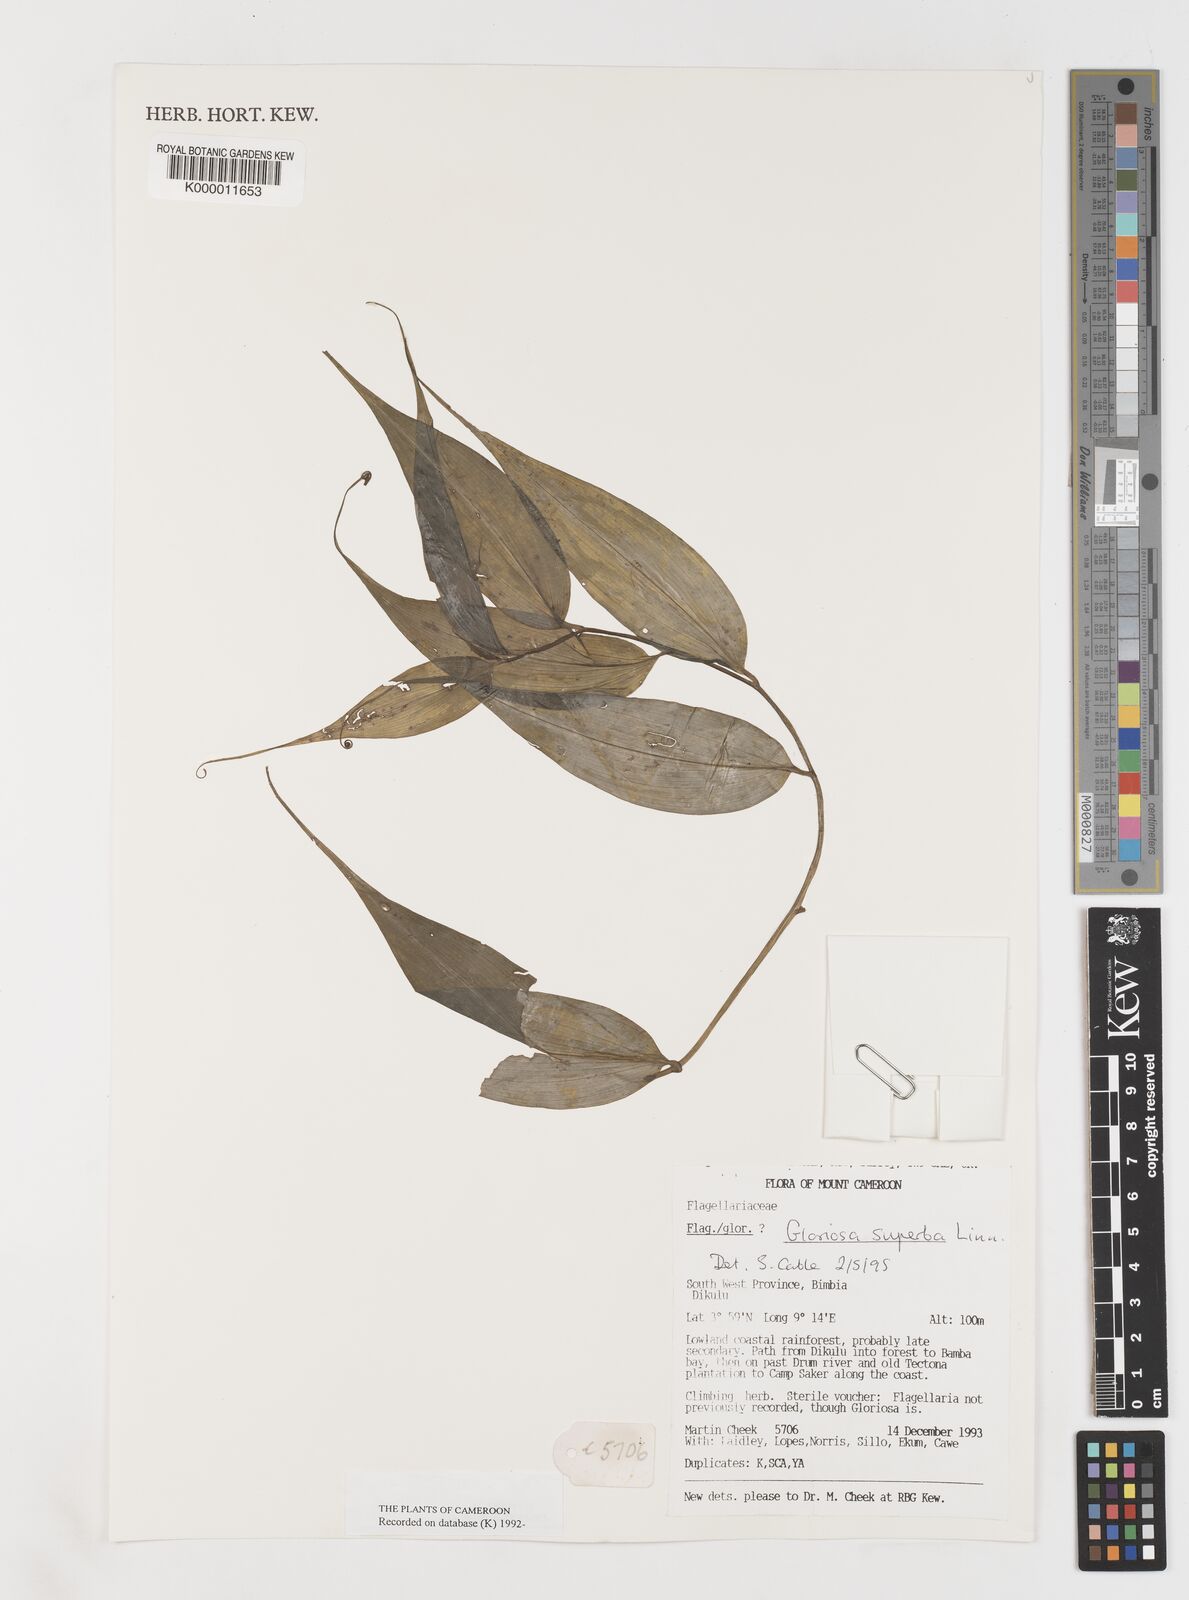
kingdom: Plantae
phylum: Tracheophyta
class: Liliopsida
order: Liliales
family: Colchicaceae
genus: Gloriosa
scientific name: Gloriosa superba
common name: Flame lily
